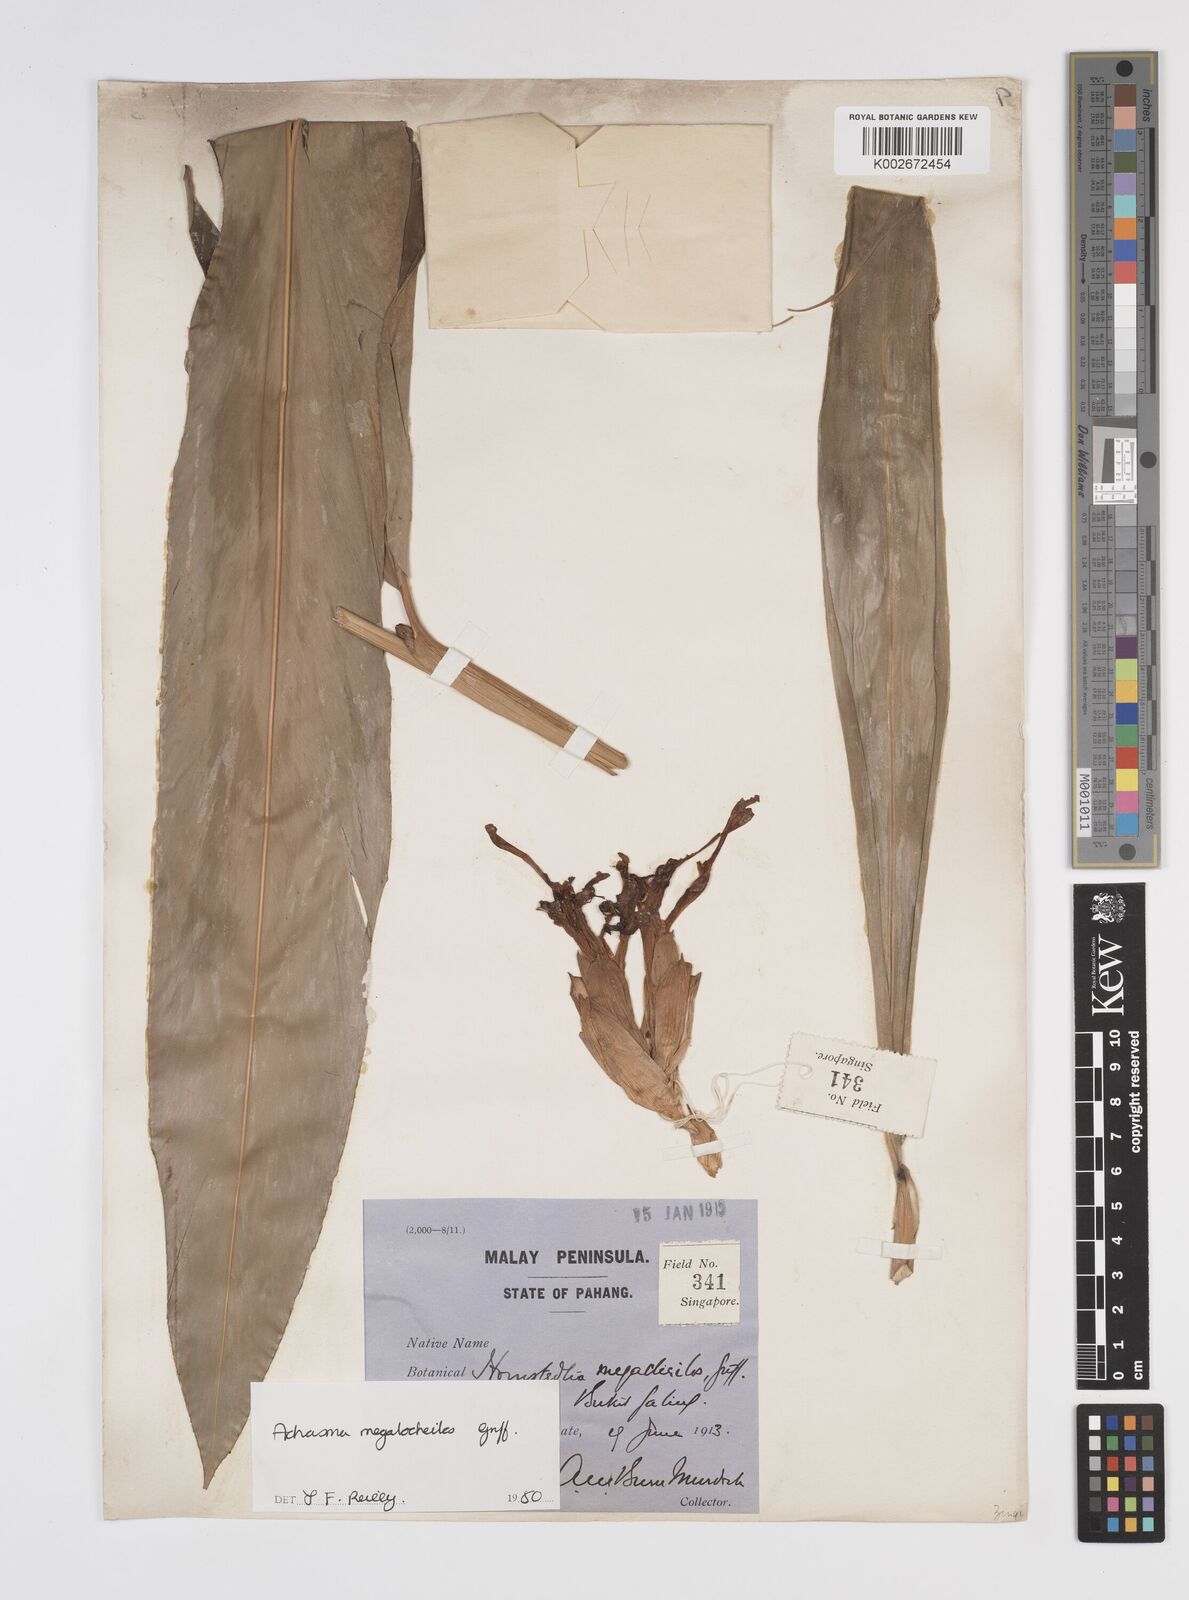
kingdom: Plantae
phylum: Tracheophyta
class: Liliopsida
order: Zingiberales
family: Zingiberaceae
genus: Etlingera
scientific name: Etlingera littoralis
